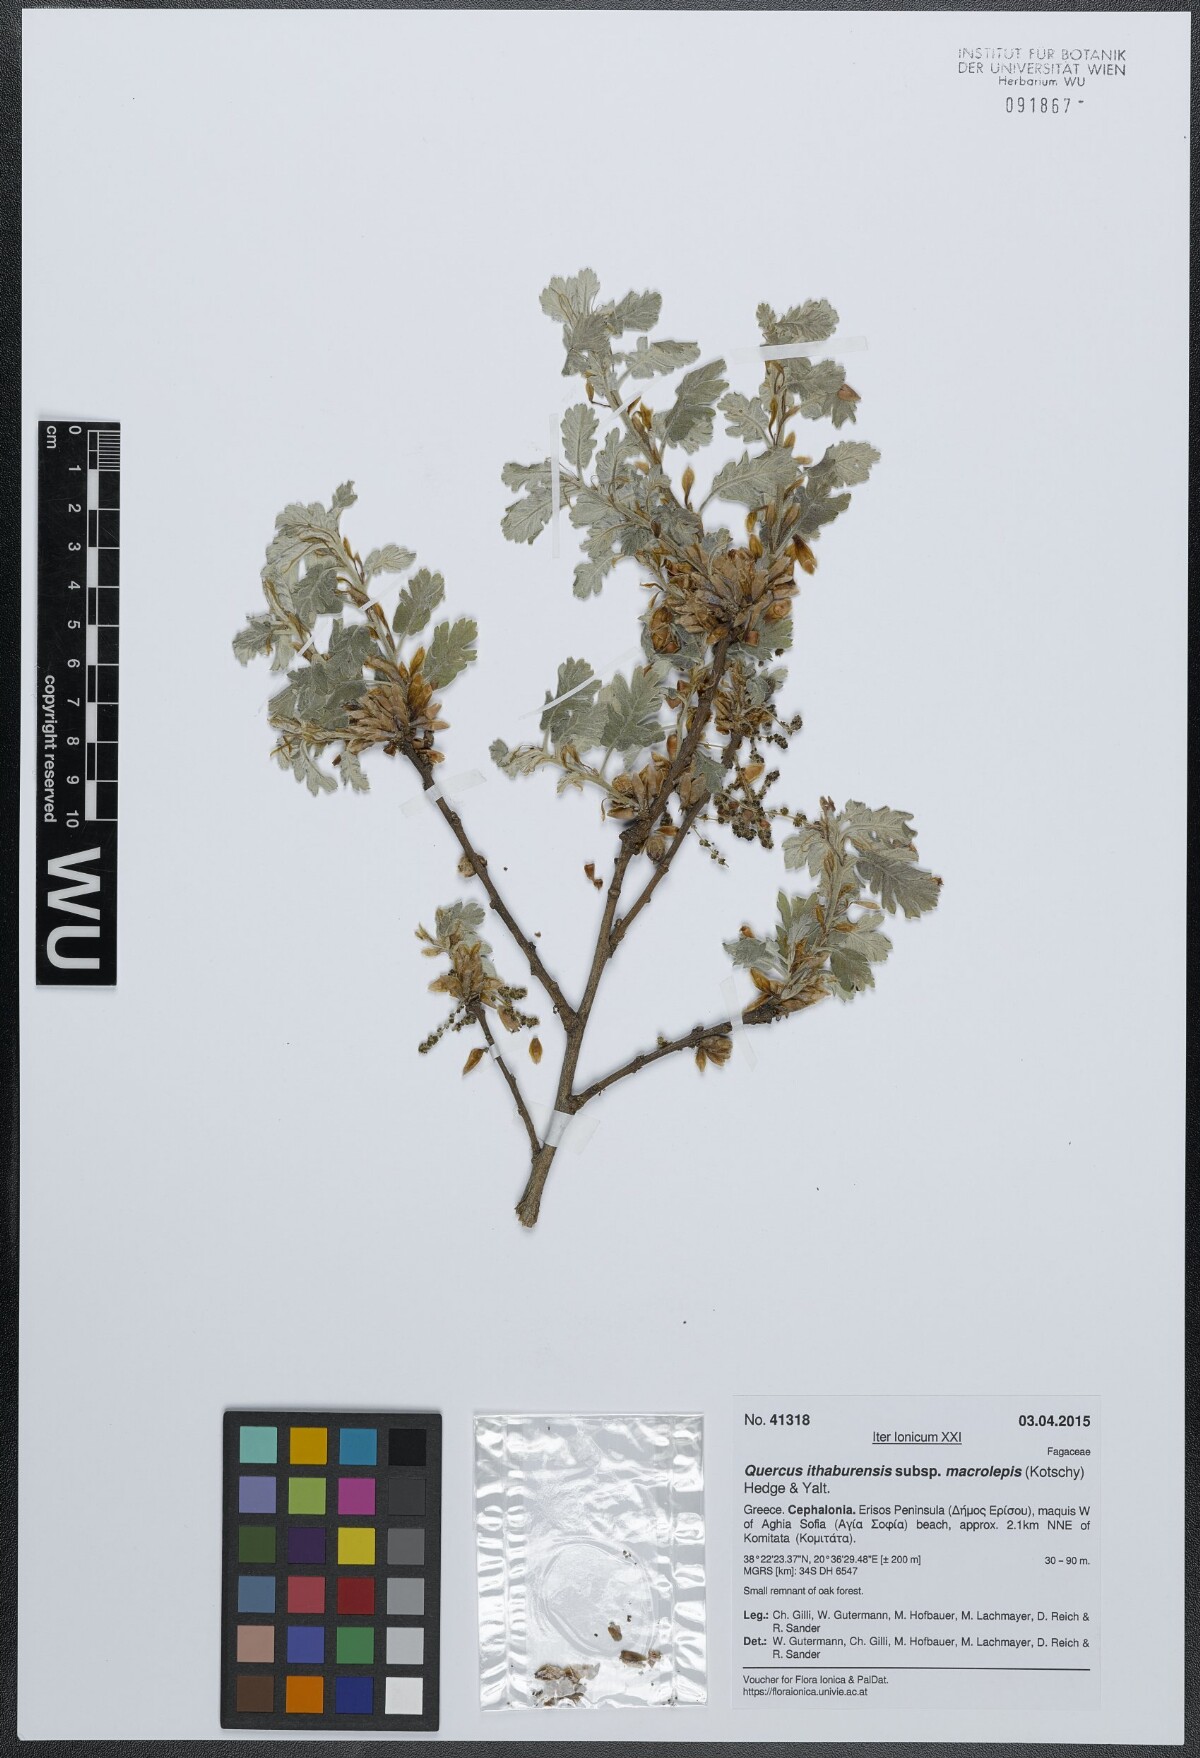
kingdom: Plantae
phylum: Tracheophyta
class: Magnoliopsida
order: Fagales
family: Fagaceae
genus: Quercus
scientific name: Quercus ithaburensis
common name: Tabor oak
